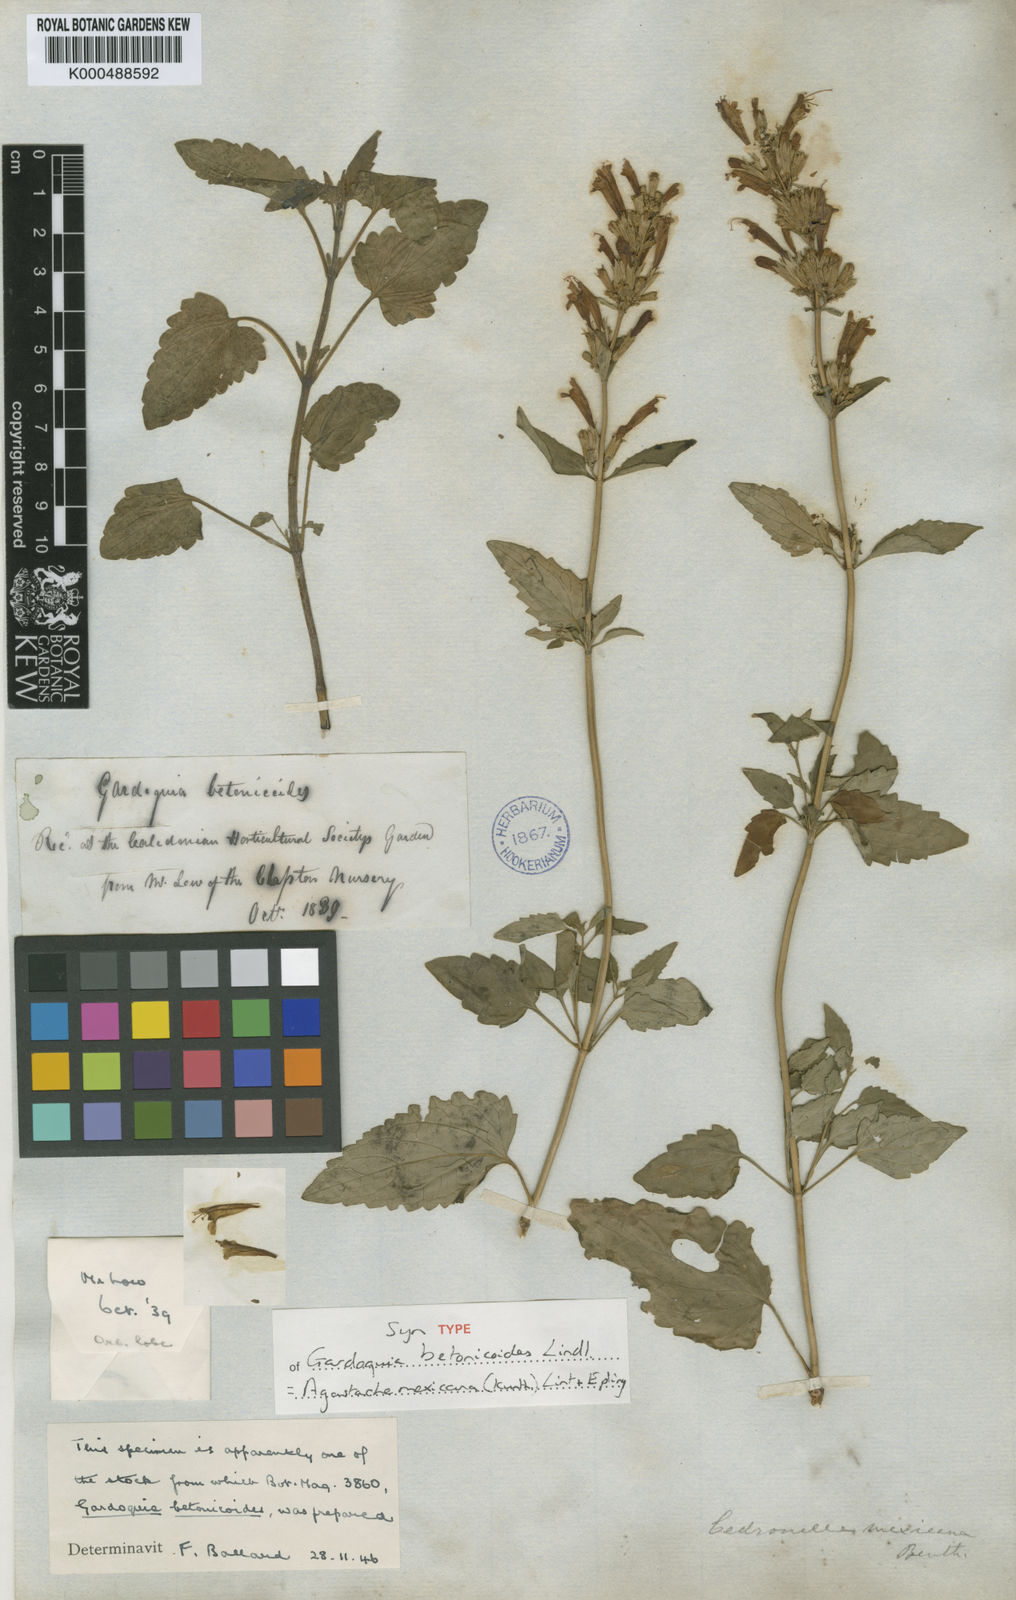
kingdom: Plantae
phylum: Tracheophyta
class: Magnoliopsida
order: Lamiales
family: Lamiaceae
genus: Agastache
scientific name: Agastache mexicana
